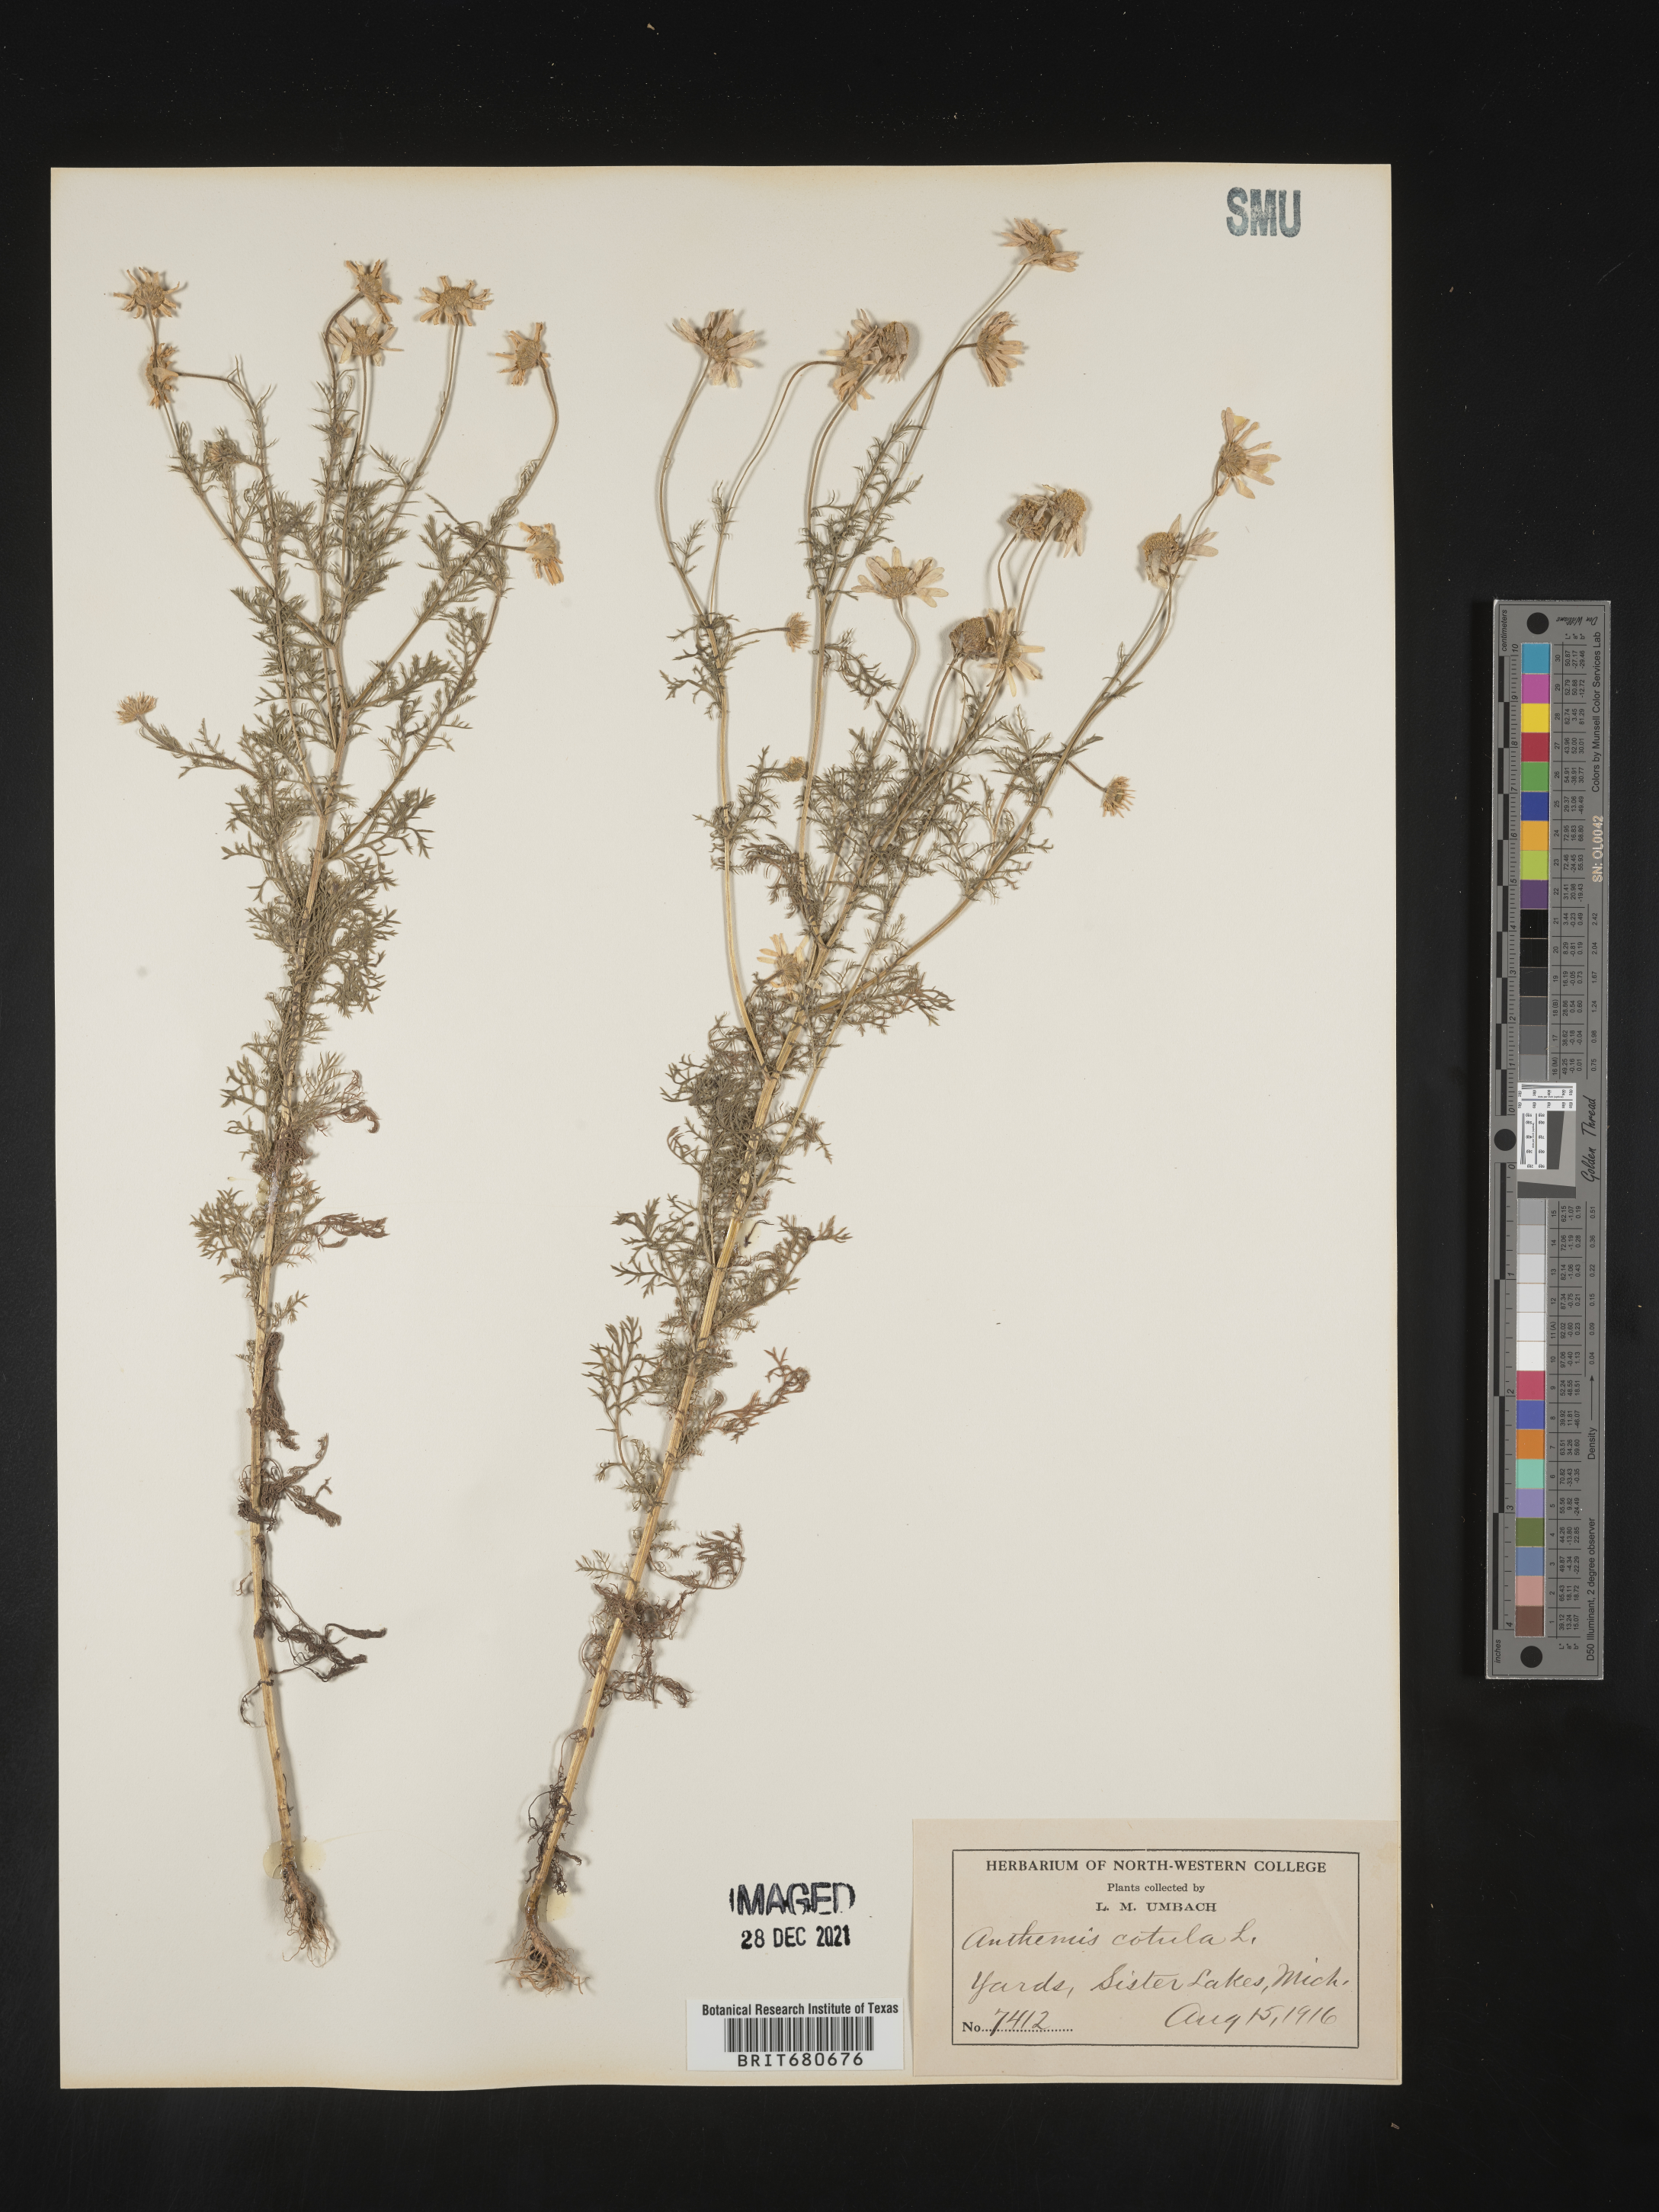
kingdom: Plantae
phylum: Tracheophyta
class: Magnoliopsida
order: Asterales
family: Asteraceae
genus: Anthemis
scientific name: Anthemis cotula
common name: Stinking chamomile
